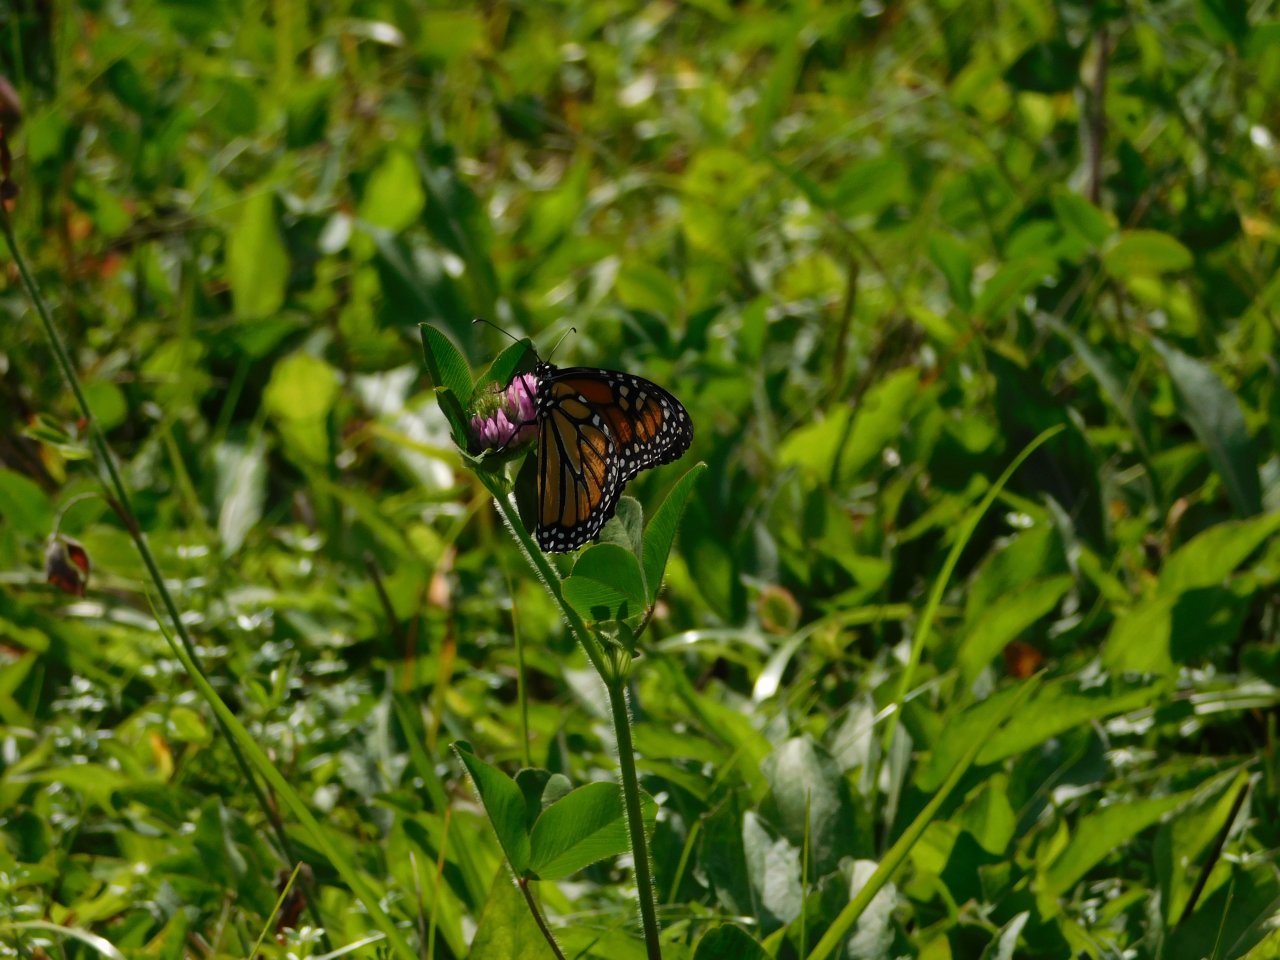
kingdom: Animalia
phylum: Arthropoda
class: Insecta
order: Lepidoptera
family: Nymphalidae
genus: Danaus
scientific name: Danaus plexippus
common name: Monarch
